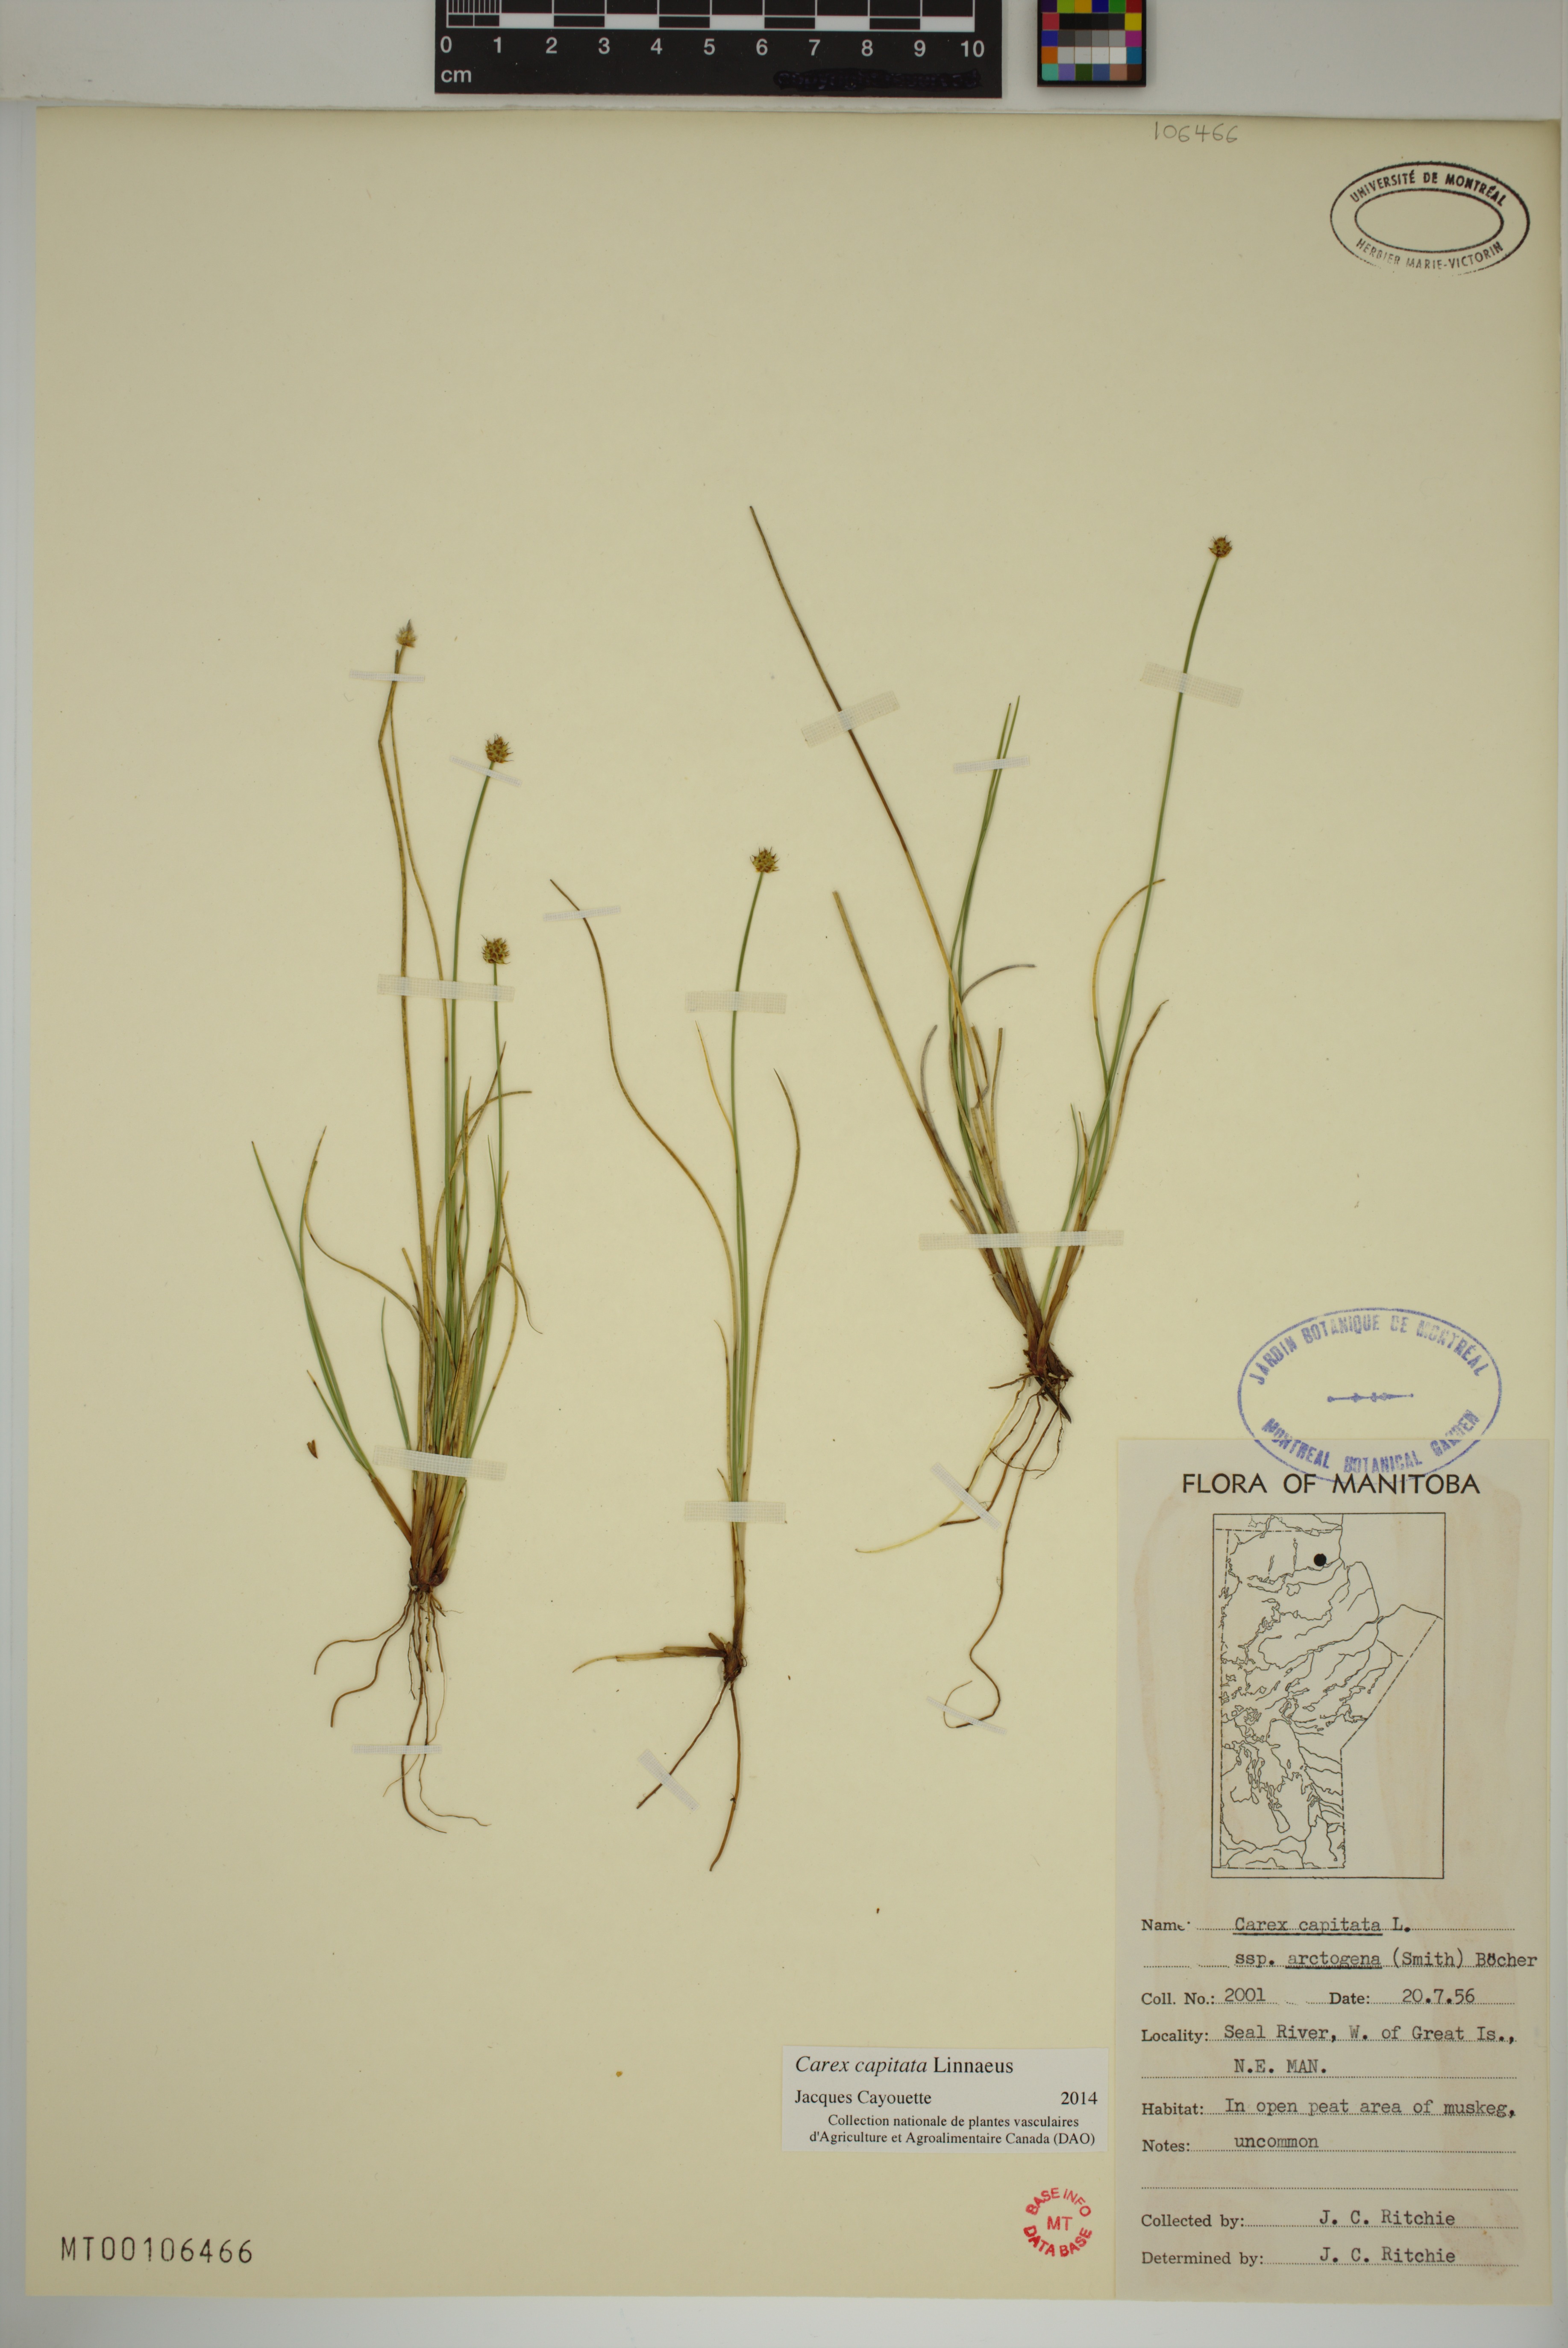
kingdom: Plantae
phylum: Tracheophyta
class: Liliopsida
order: Poales
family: Cyperaceae
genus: Carex
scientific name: Carex capitata
